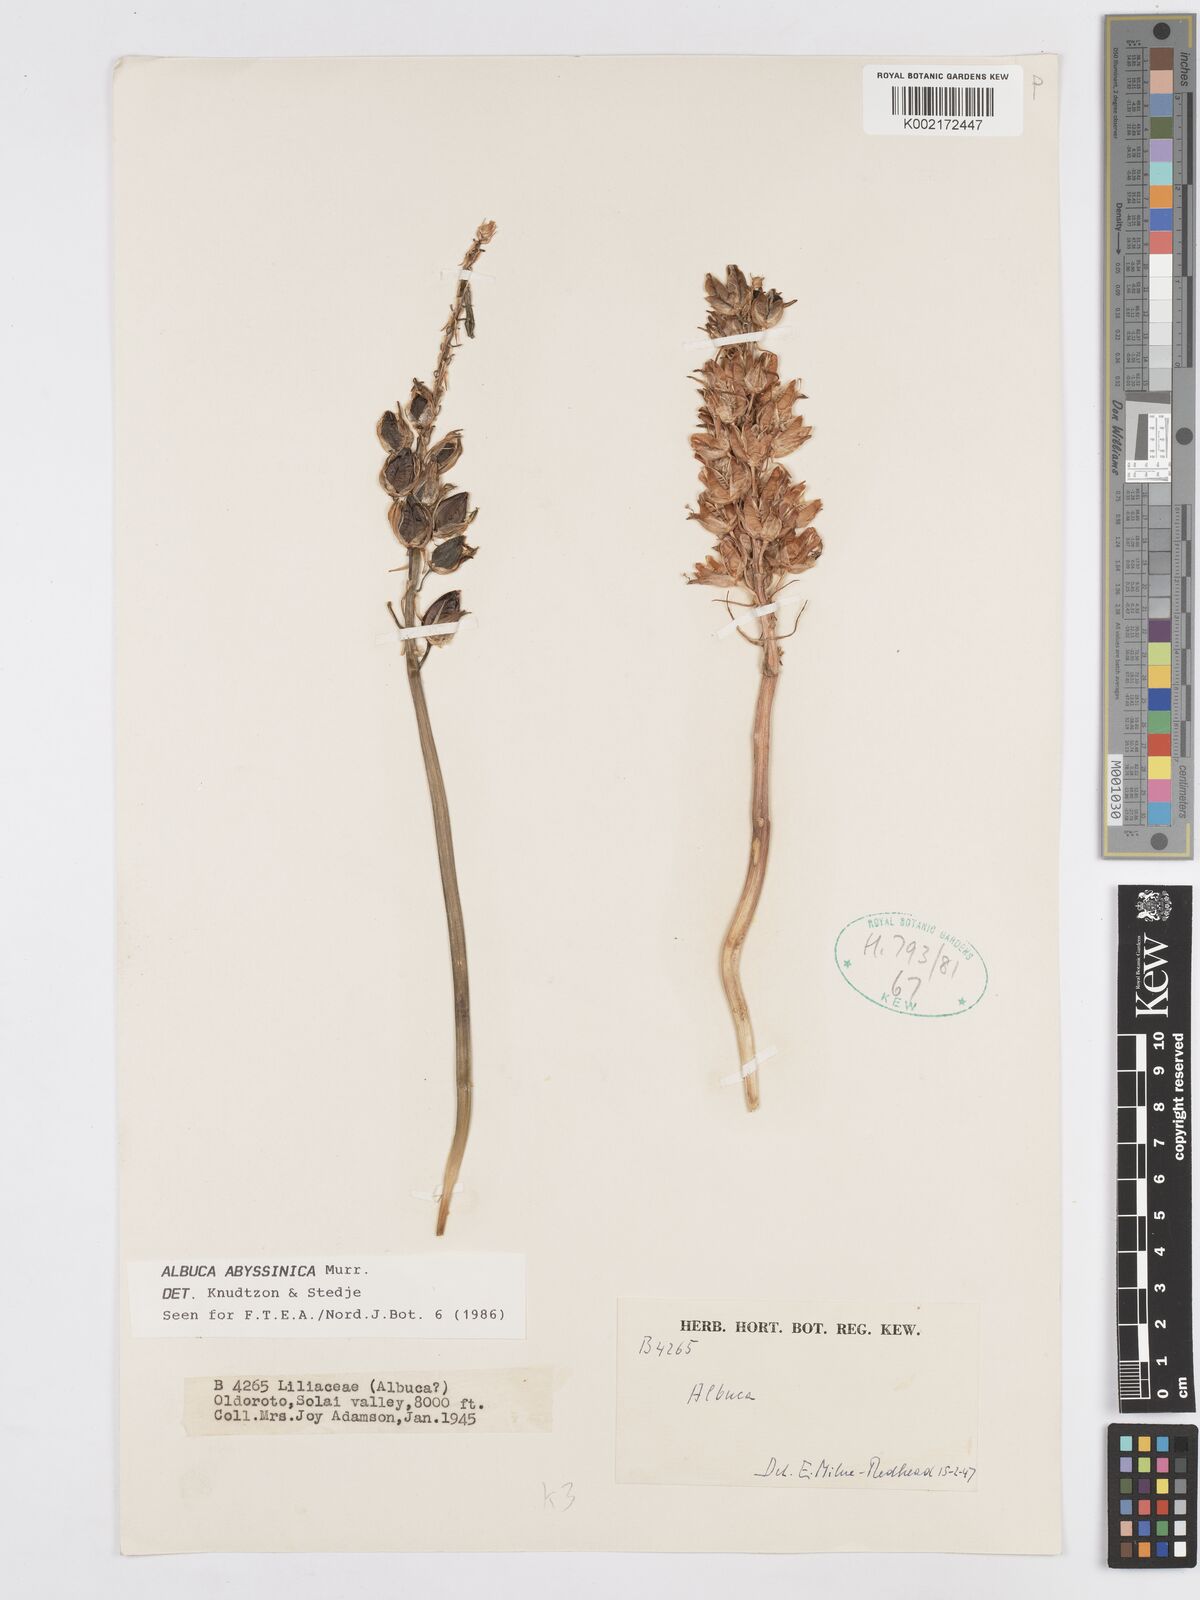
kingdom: Plantae
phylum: Tracheophyta
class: Liliopsida
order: Asparagales
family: Asparagaceae
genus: Albuca
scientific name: Albuca abyssinica
